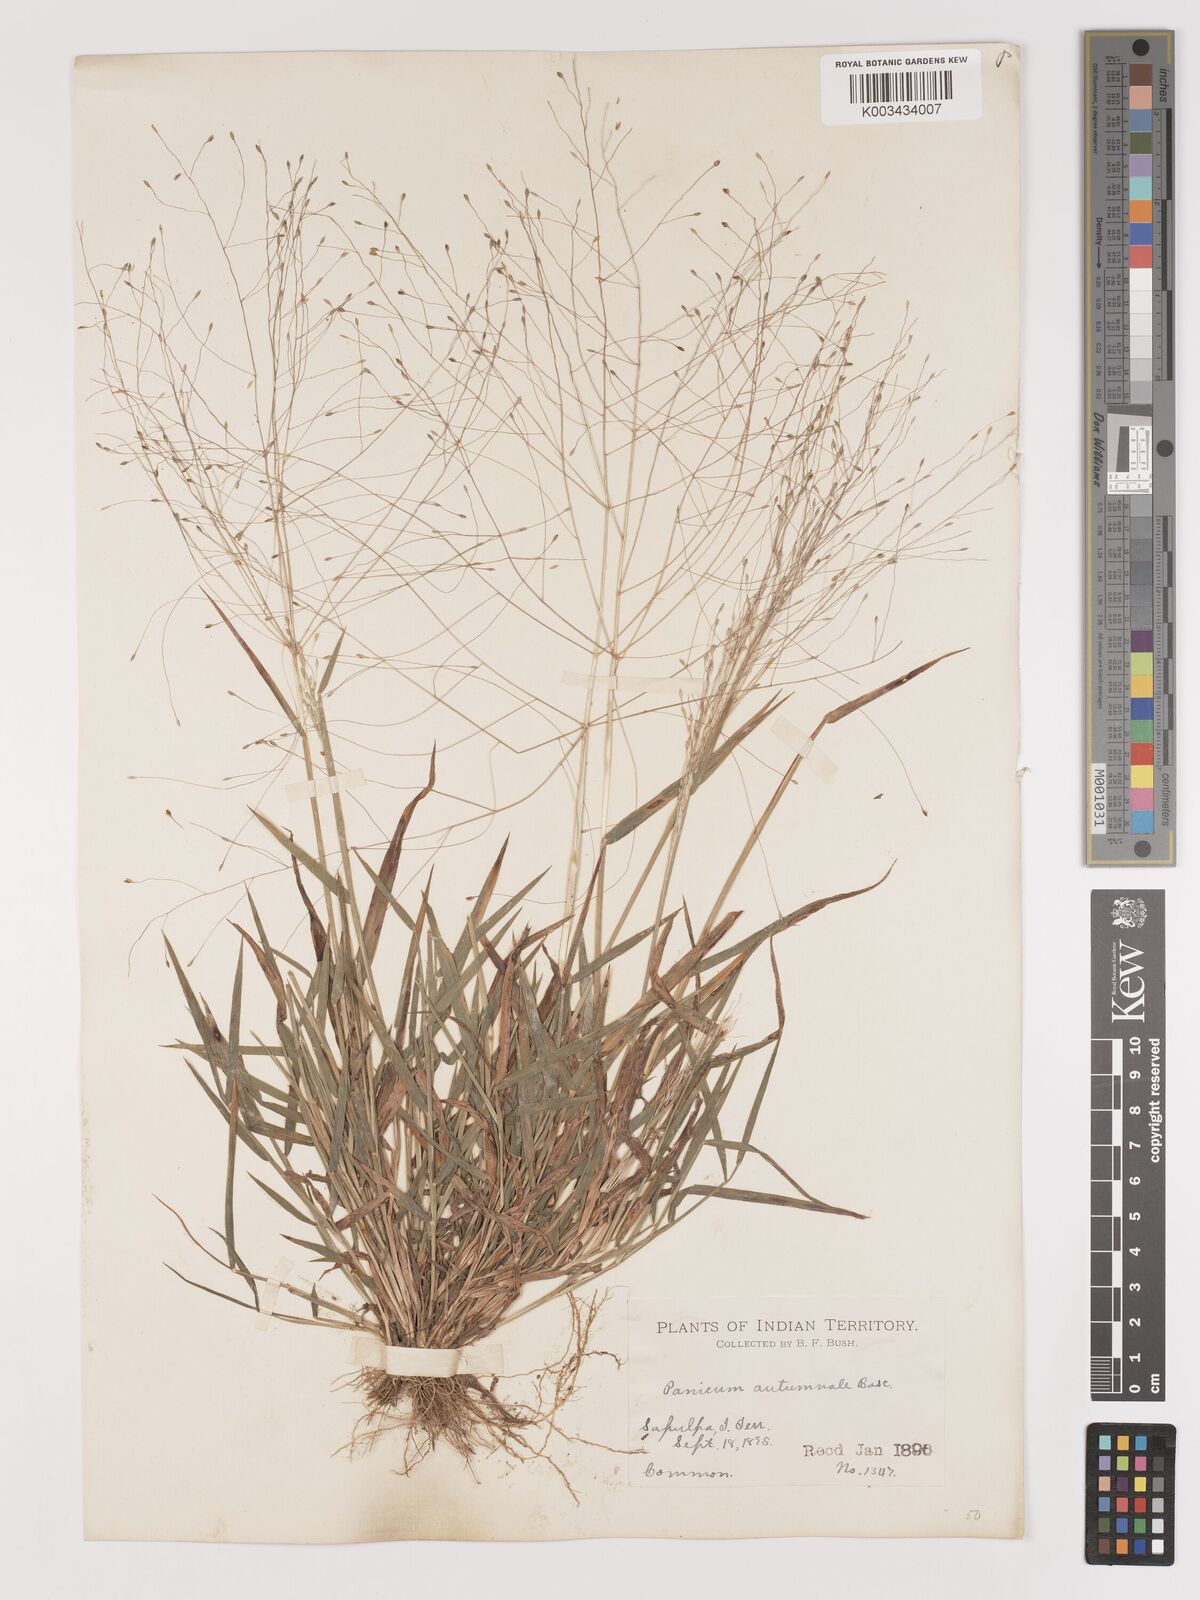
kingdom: Plantae
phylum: Tracheophyta
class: Liliopsida
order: Poales
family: Poaceae
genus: Digitaria
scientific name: Digitaria cognata
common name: Fall witchgrass
